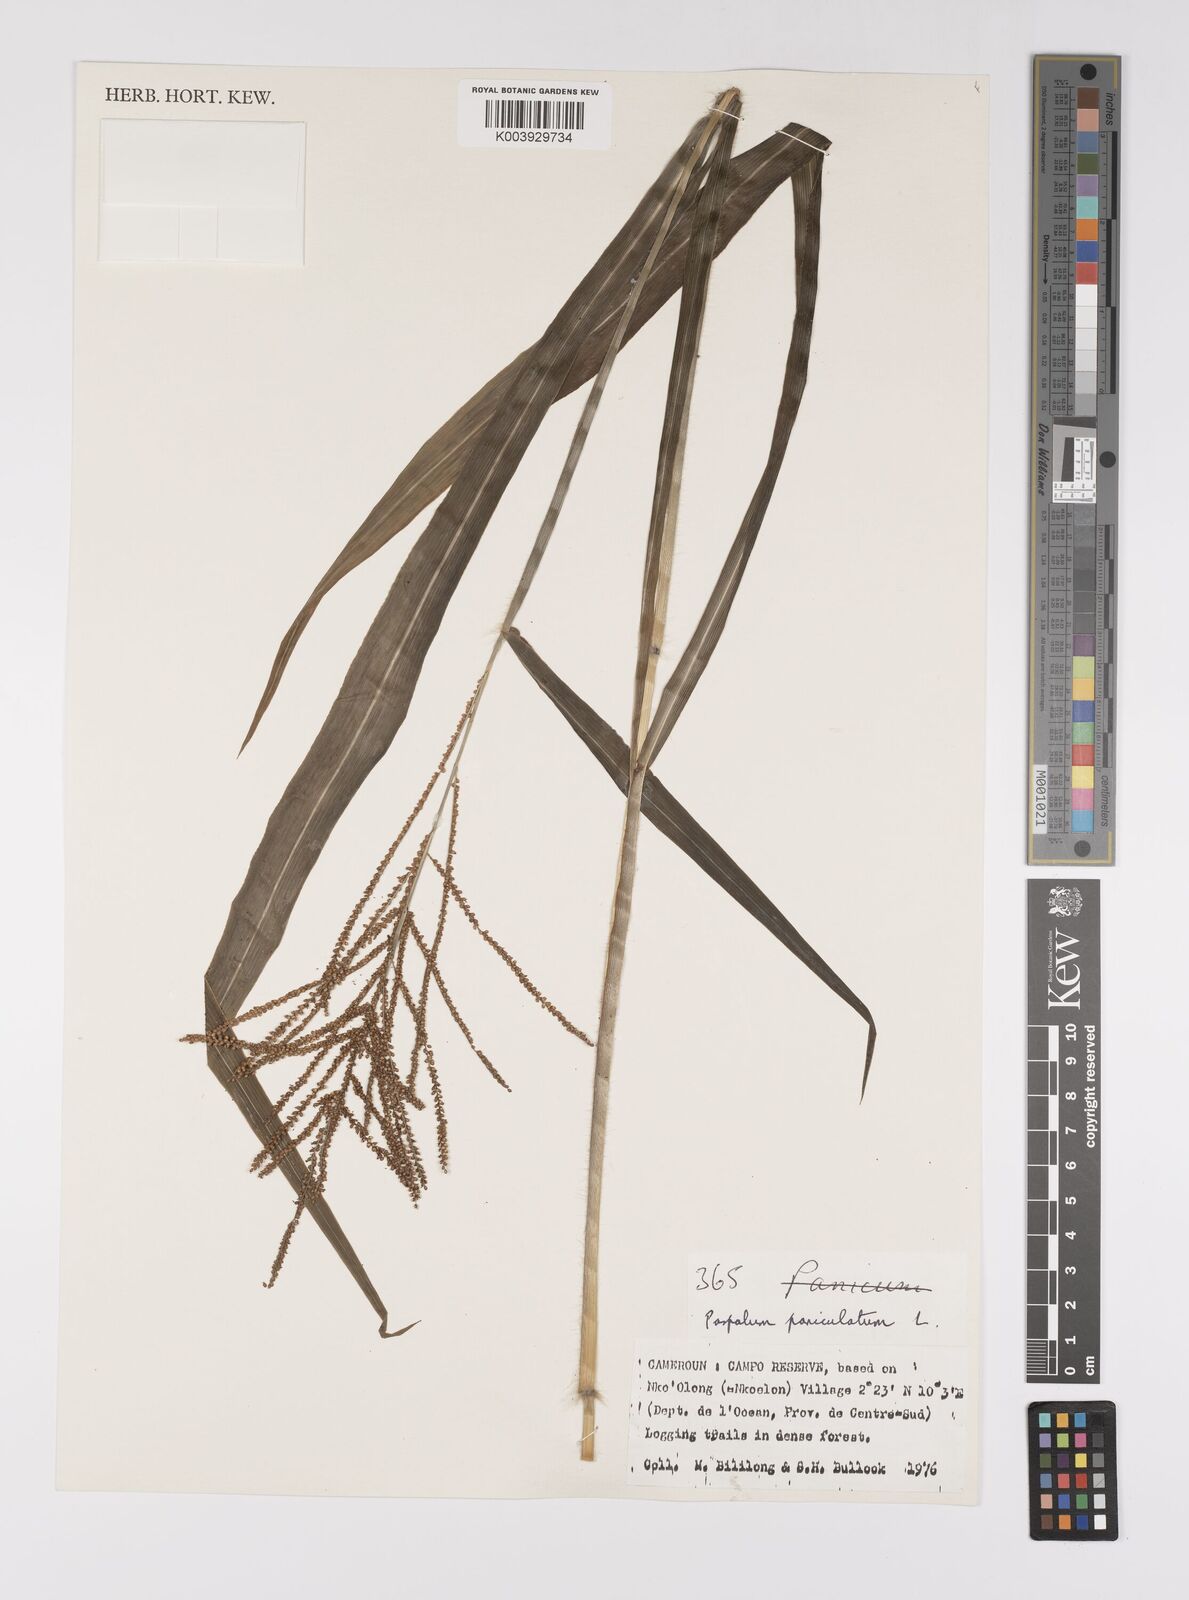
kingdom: Plantae
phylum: Tracheophyta
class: Liliopsida
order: Poales
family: Poaceae
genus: Paspalum
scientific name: Paspalum paniculatum
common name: Arrocillo
